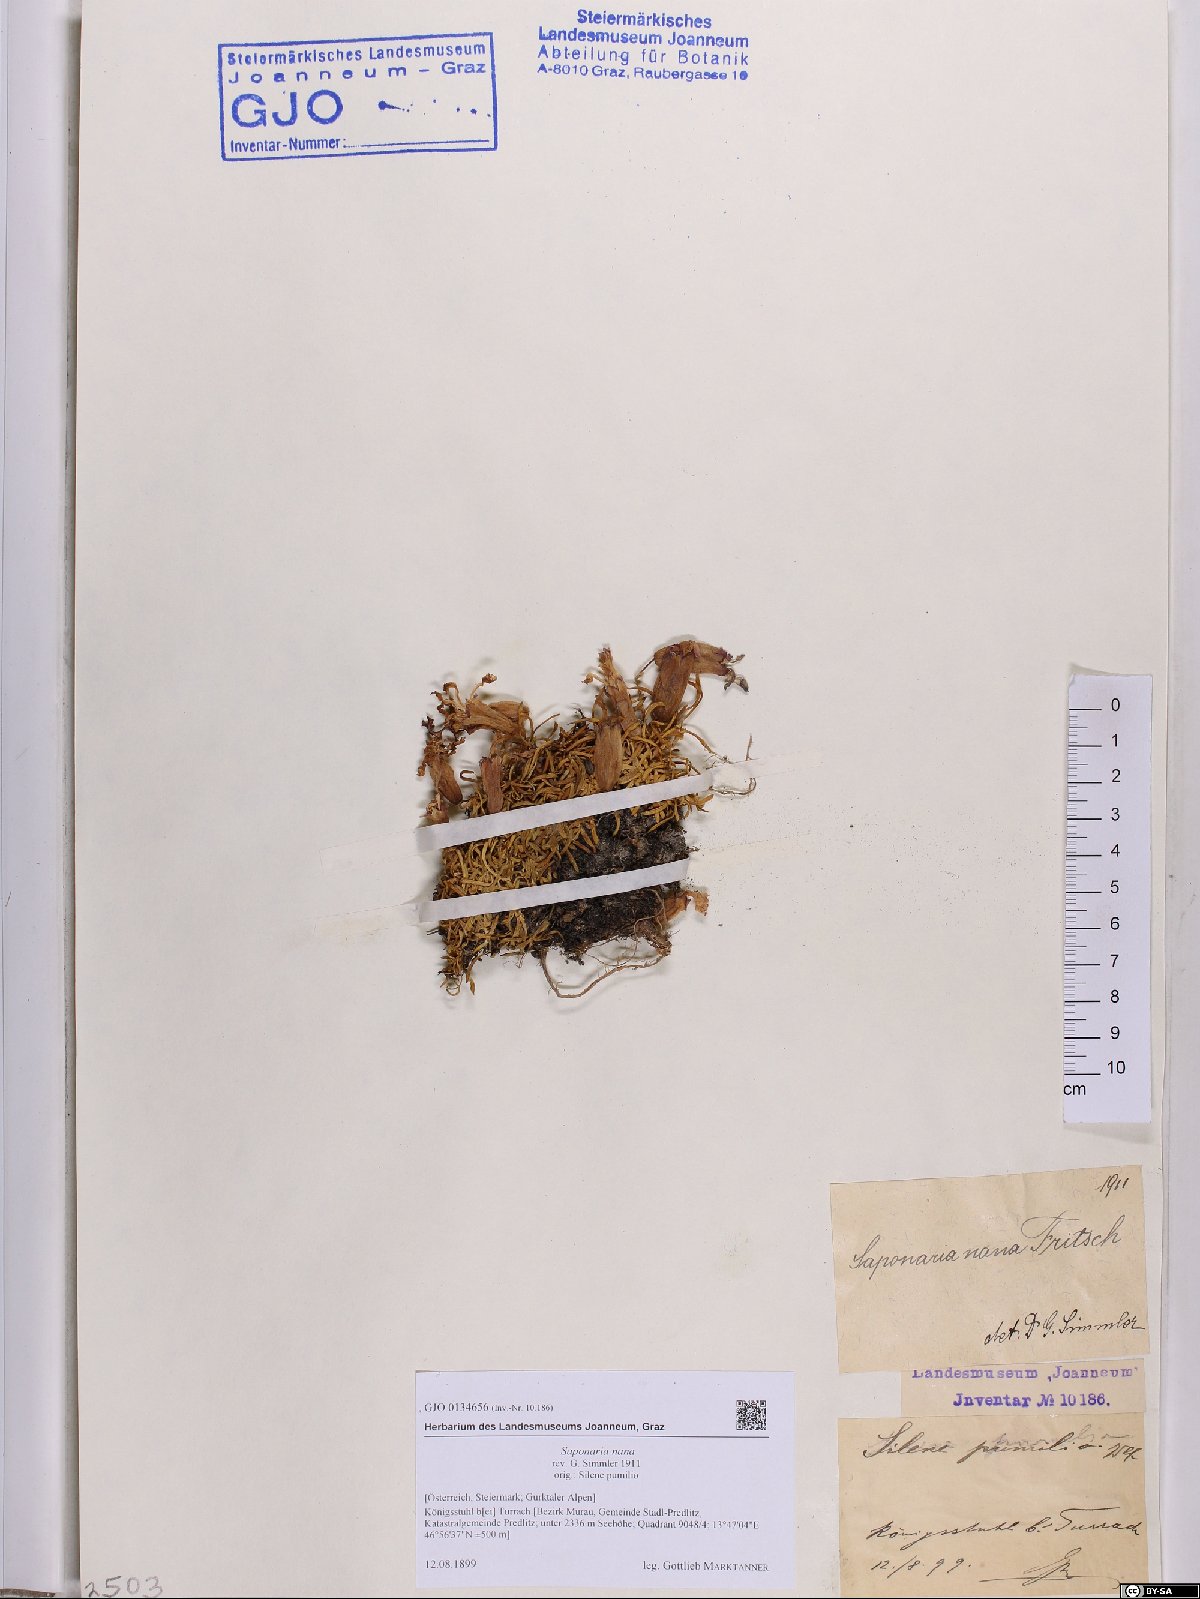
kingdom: Plantae
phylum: Tracheophyta
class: Magnoliopsida
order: Caryophyllales
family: Caryophyllaceae
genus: Saponaria
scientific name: Saponaria pumila
